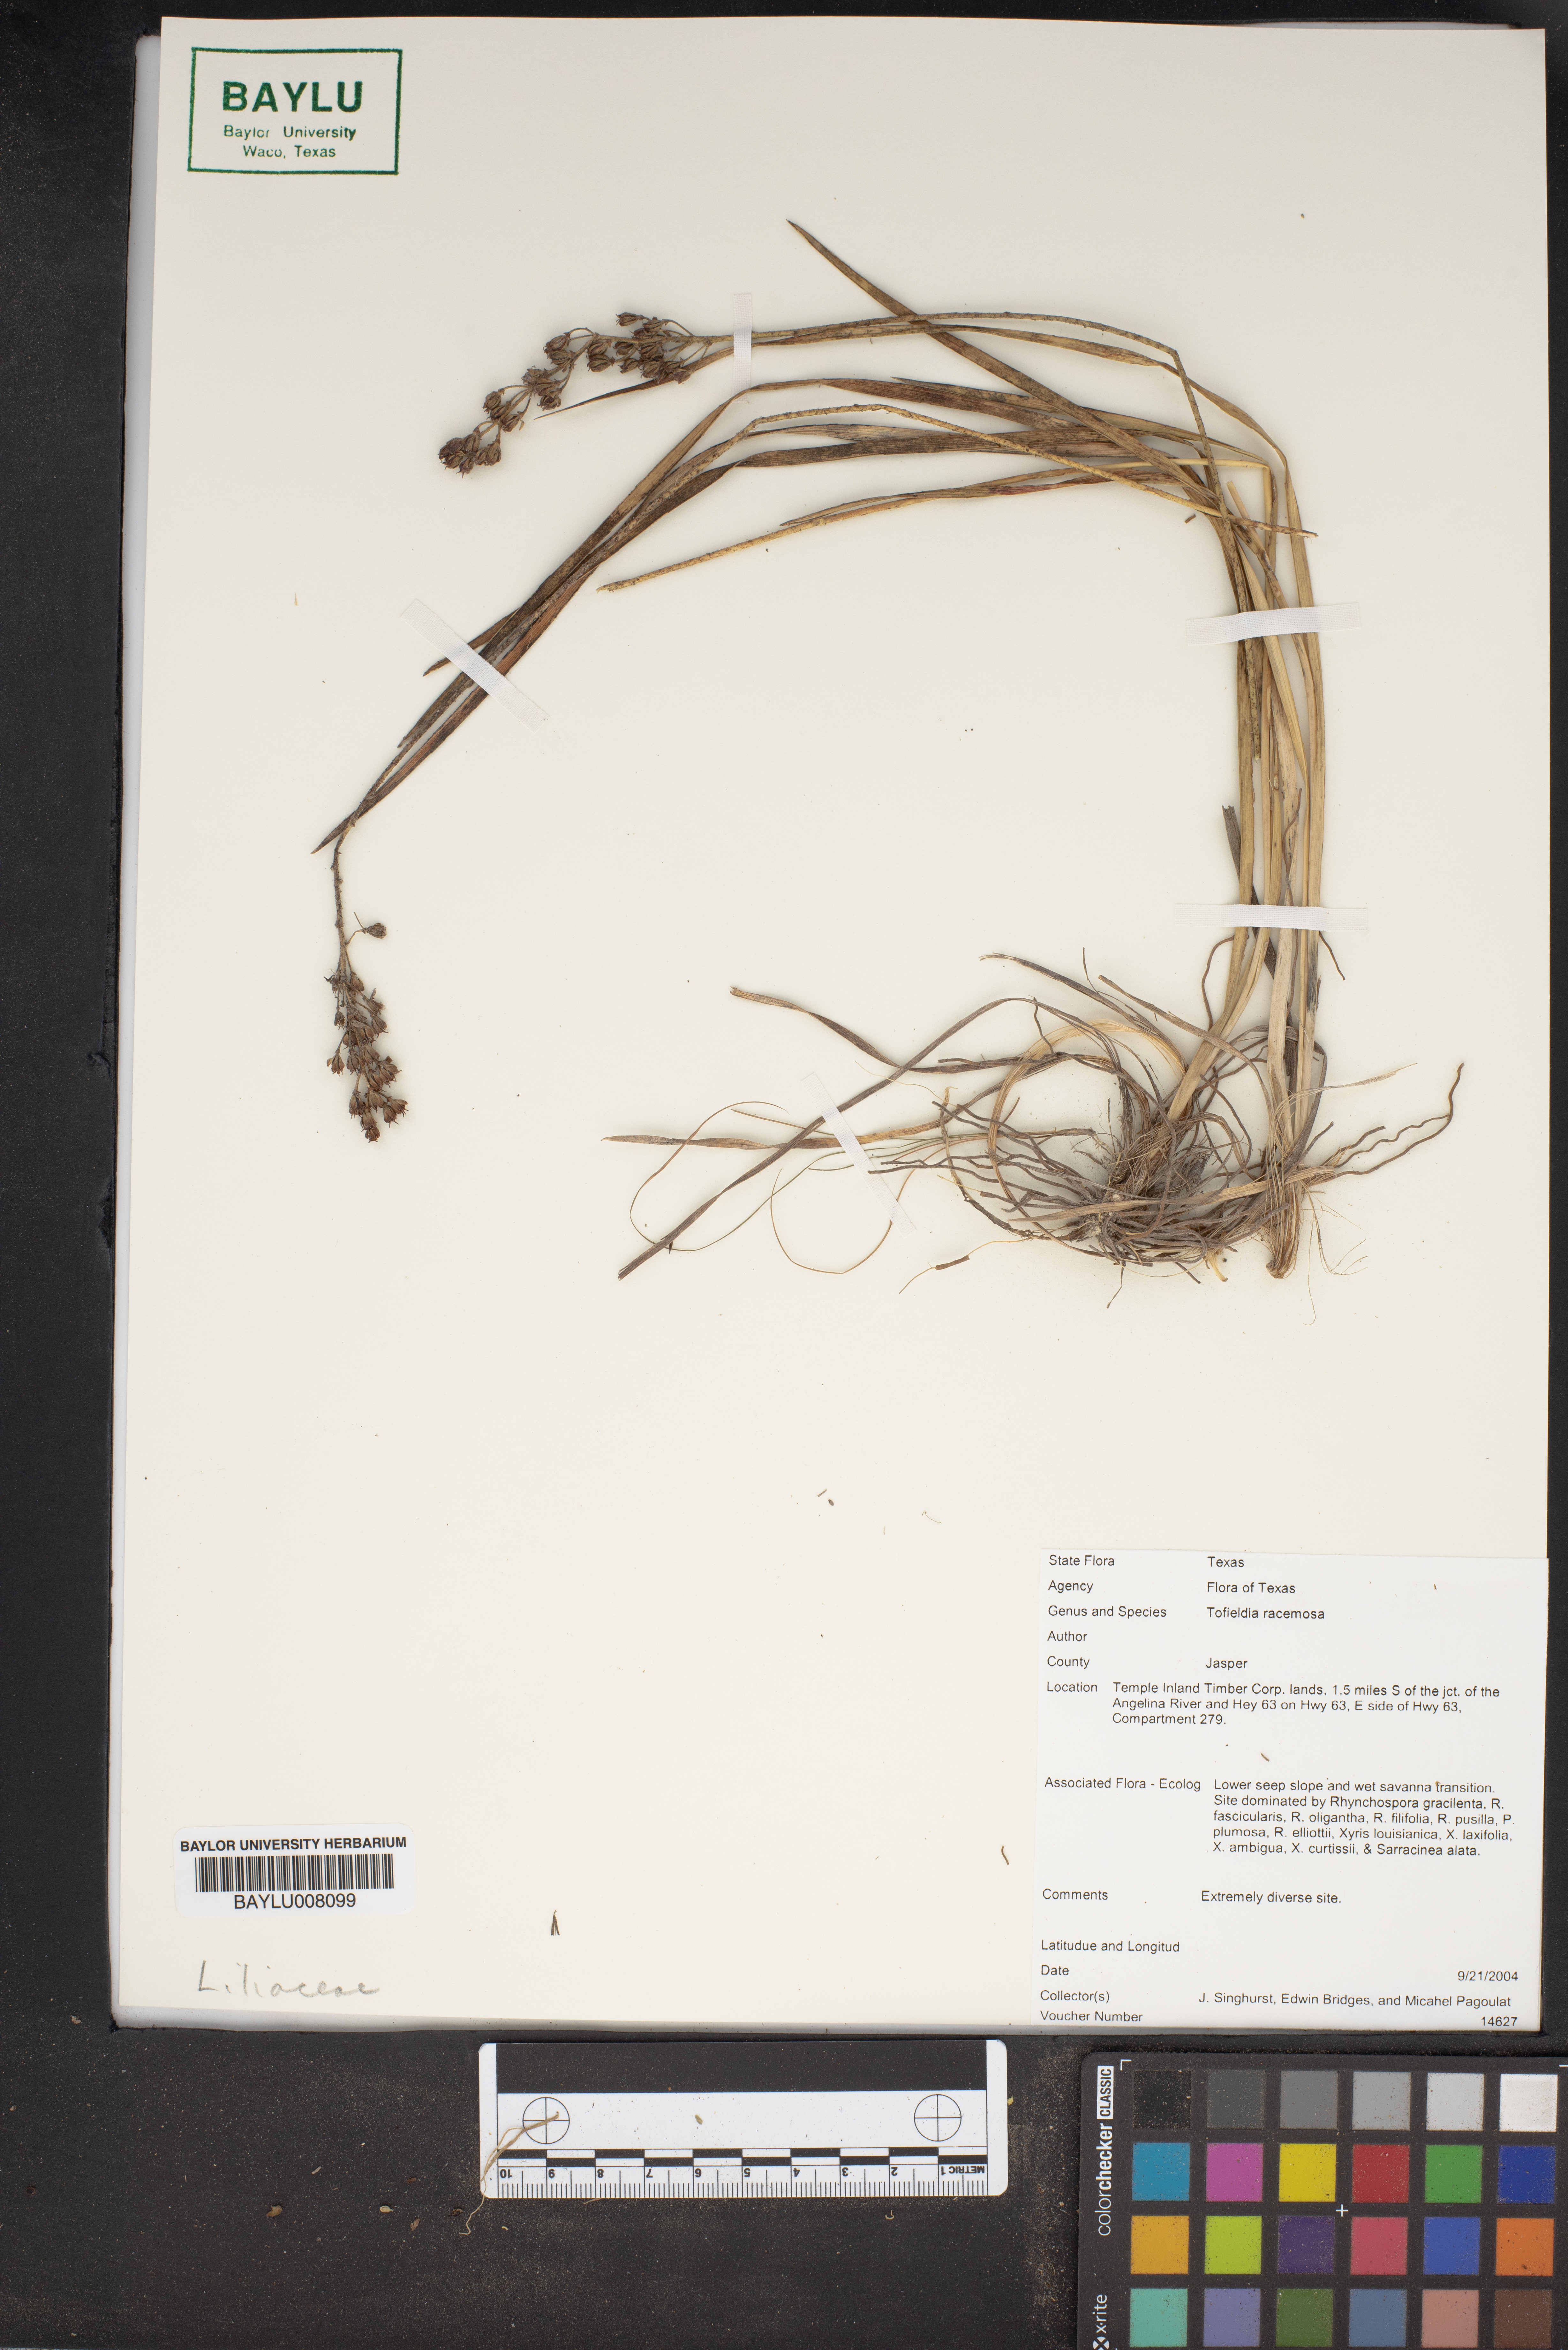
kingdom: Plantae
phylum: Tracheophyta
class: Liliopsida
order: Alismatales
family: Tofieldiaceae
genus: Triantha
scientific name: Triantha racemosa
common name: Coastal false asphodel
